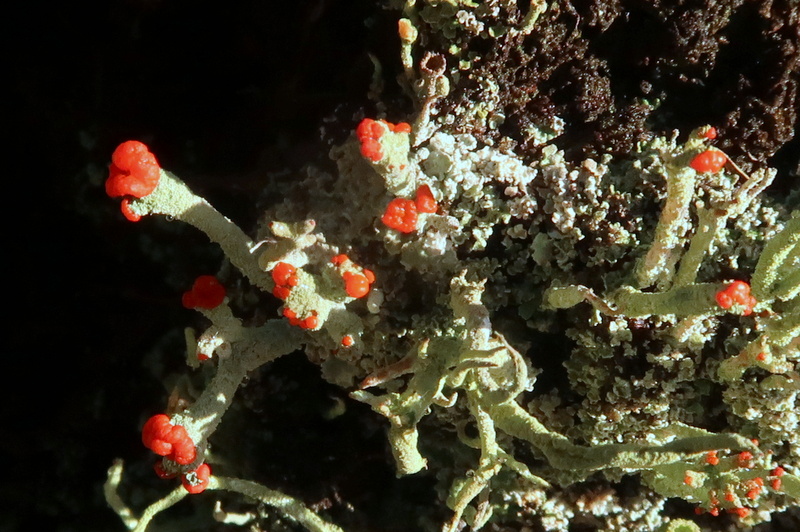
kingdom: Fungi
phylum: Ascomycota
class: Lecanoromycetes
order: Lecanorales
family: Cladoniaceae
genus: Cladonia
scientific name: Cladonia floerkeana
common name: lakrød bægerlav
